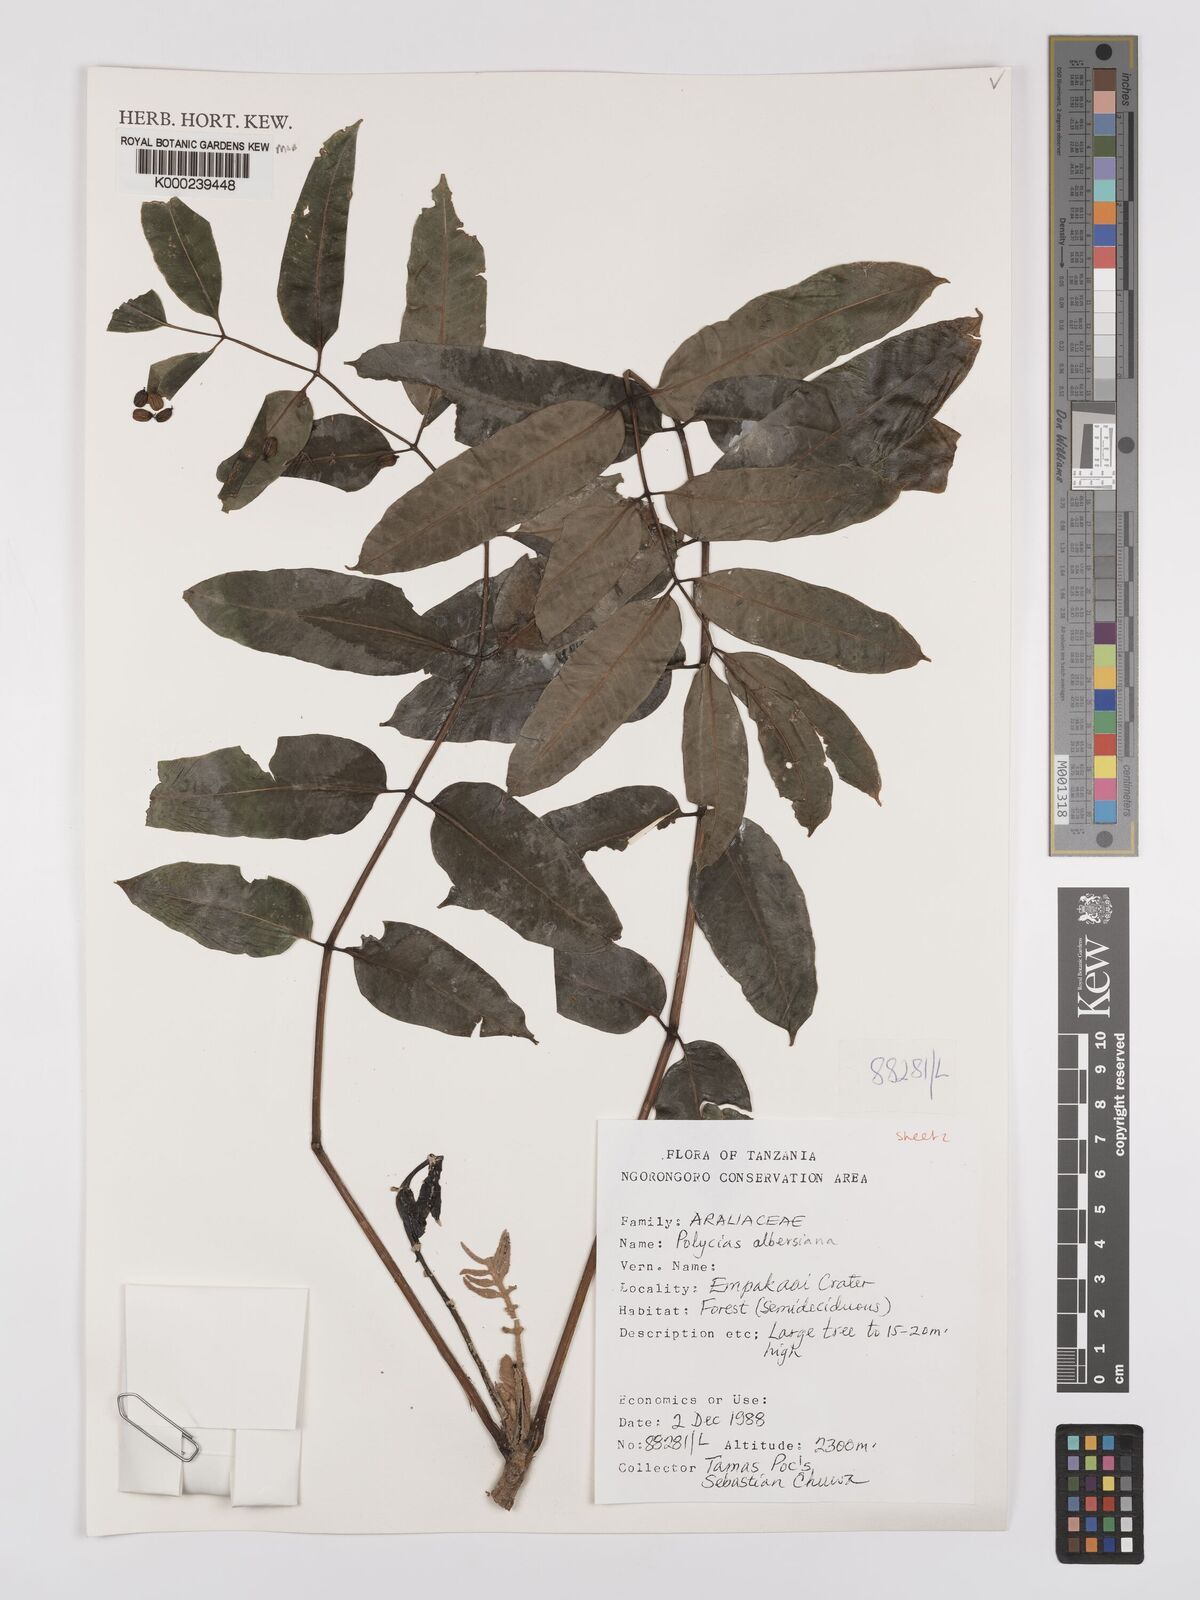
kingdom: Plantae
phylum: Tracheophyta
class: Magnoliopsida
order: Apiales
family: Araliaceae
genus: Polyscias
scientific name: Polyscias albersiana
